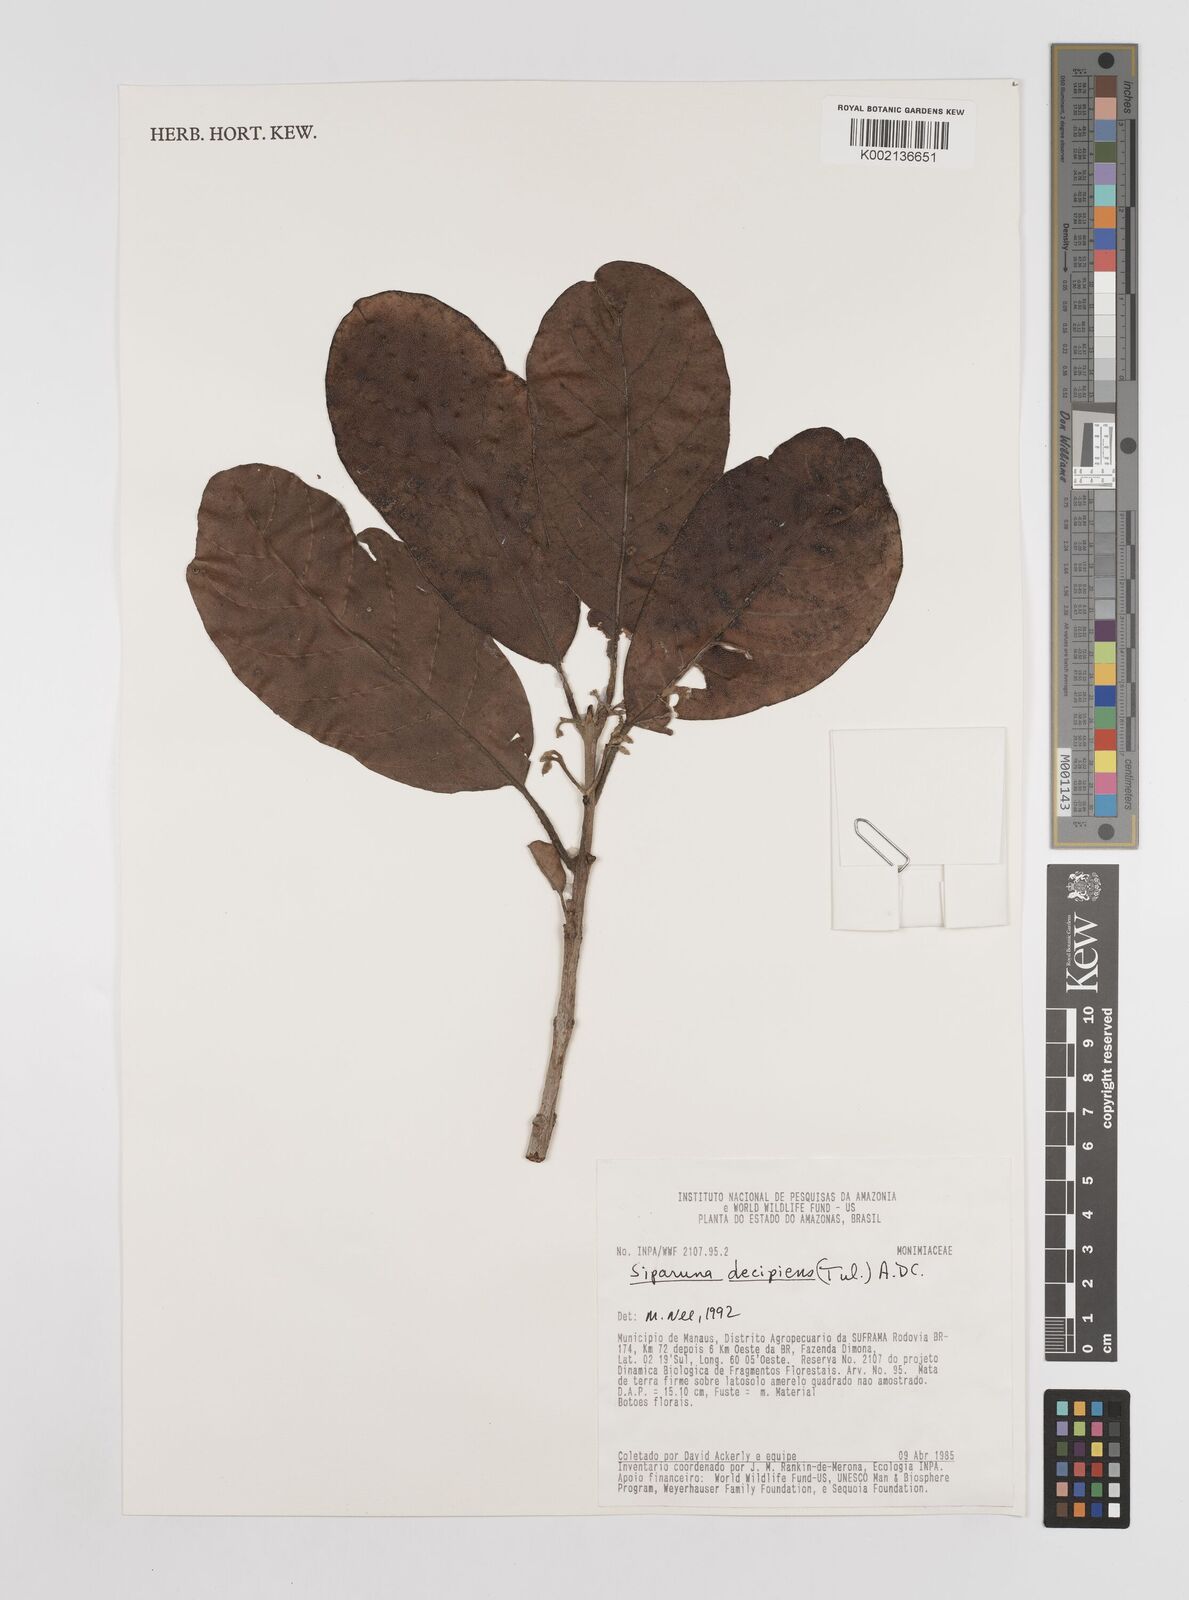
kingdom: Plantae
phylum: Tracheophyta
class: Magnoliopsida
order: Laurales
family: Siparunaceae
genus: Siparuna
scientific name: Siparuna decipiens
